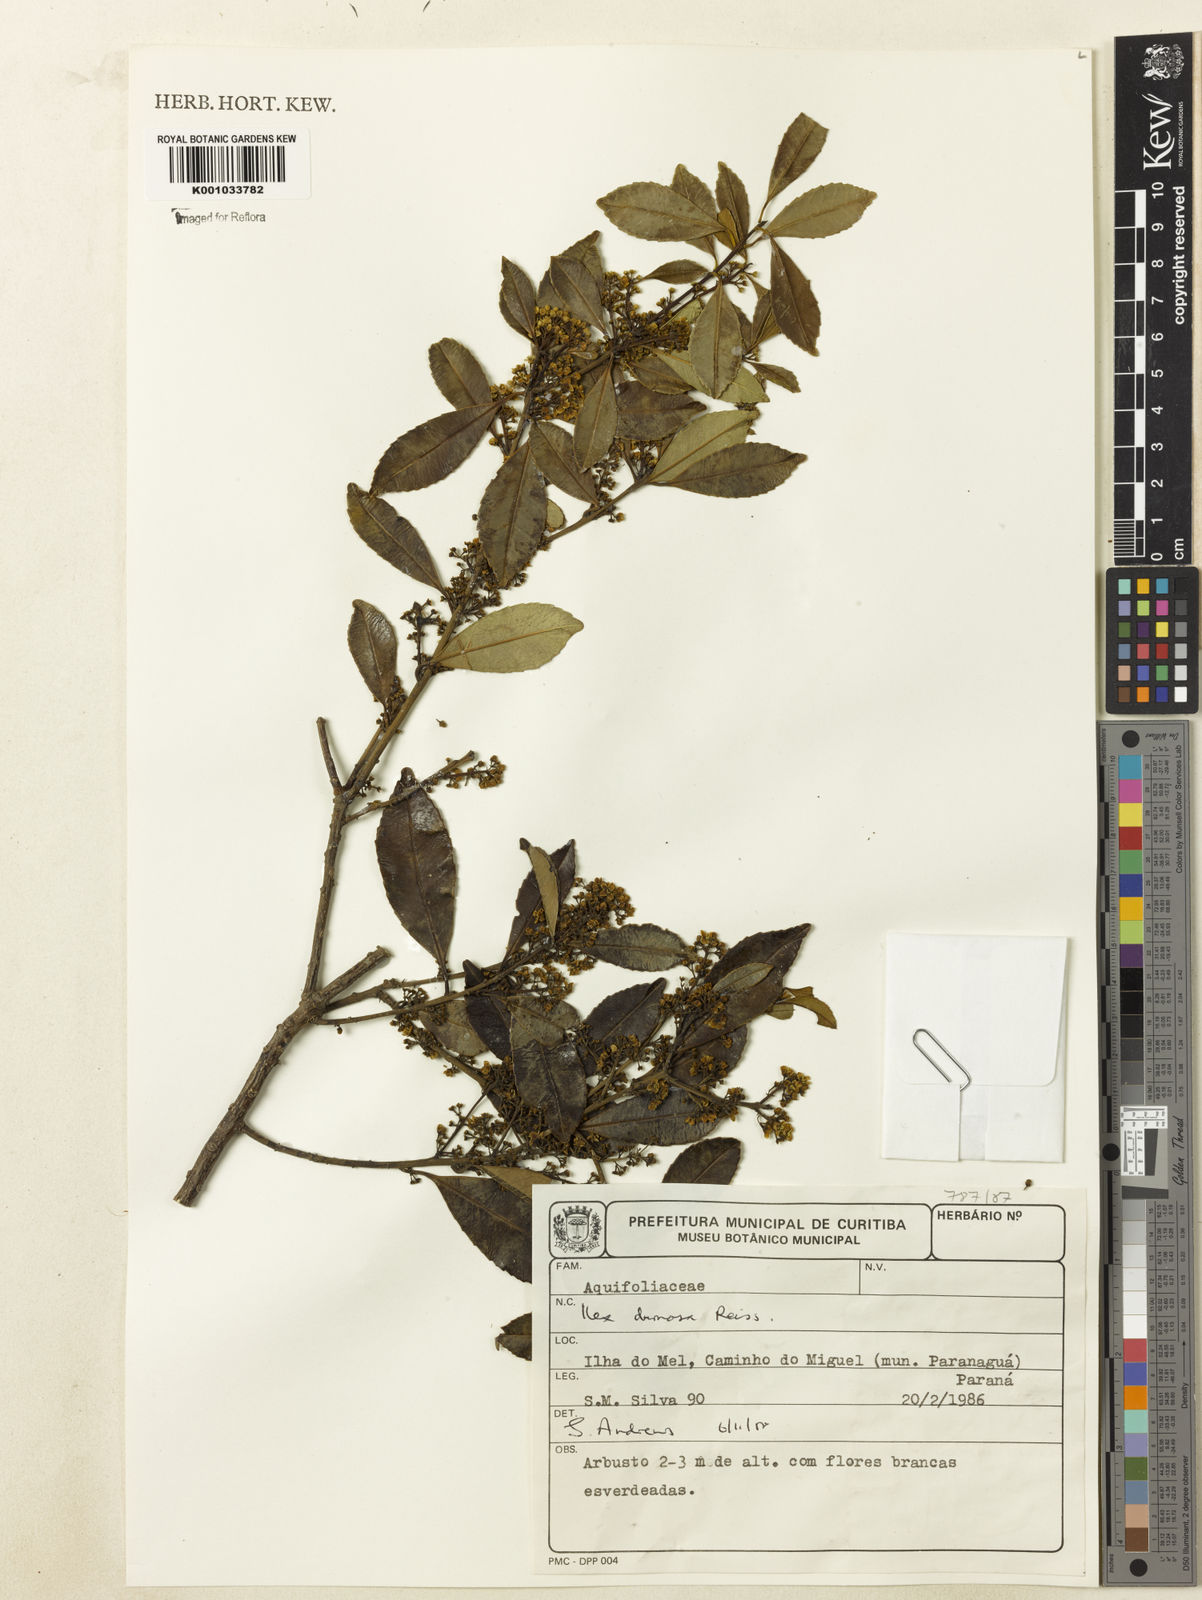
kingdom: Plantae
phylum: Tracheophyta
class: Magnoliopsida
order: Aquifoliales
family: Aquifoliaceae
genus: Ilex
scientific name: Ilex dumosa
